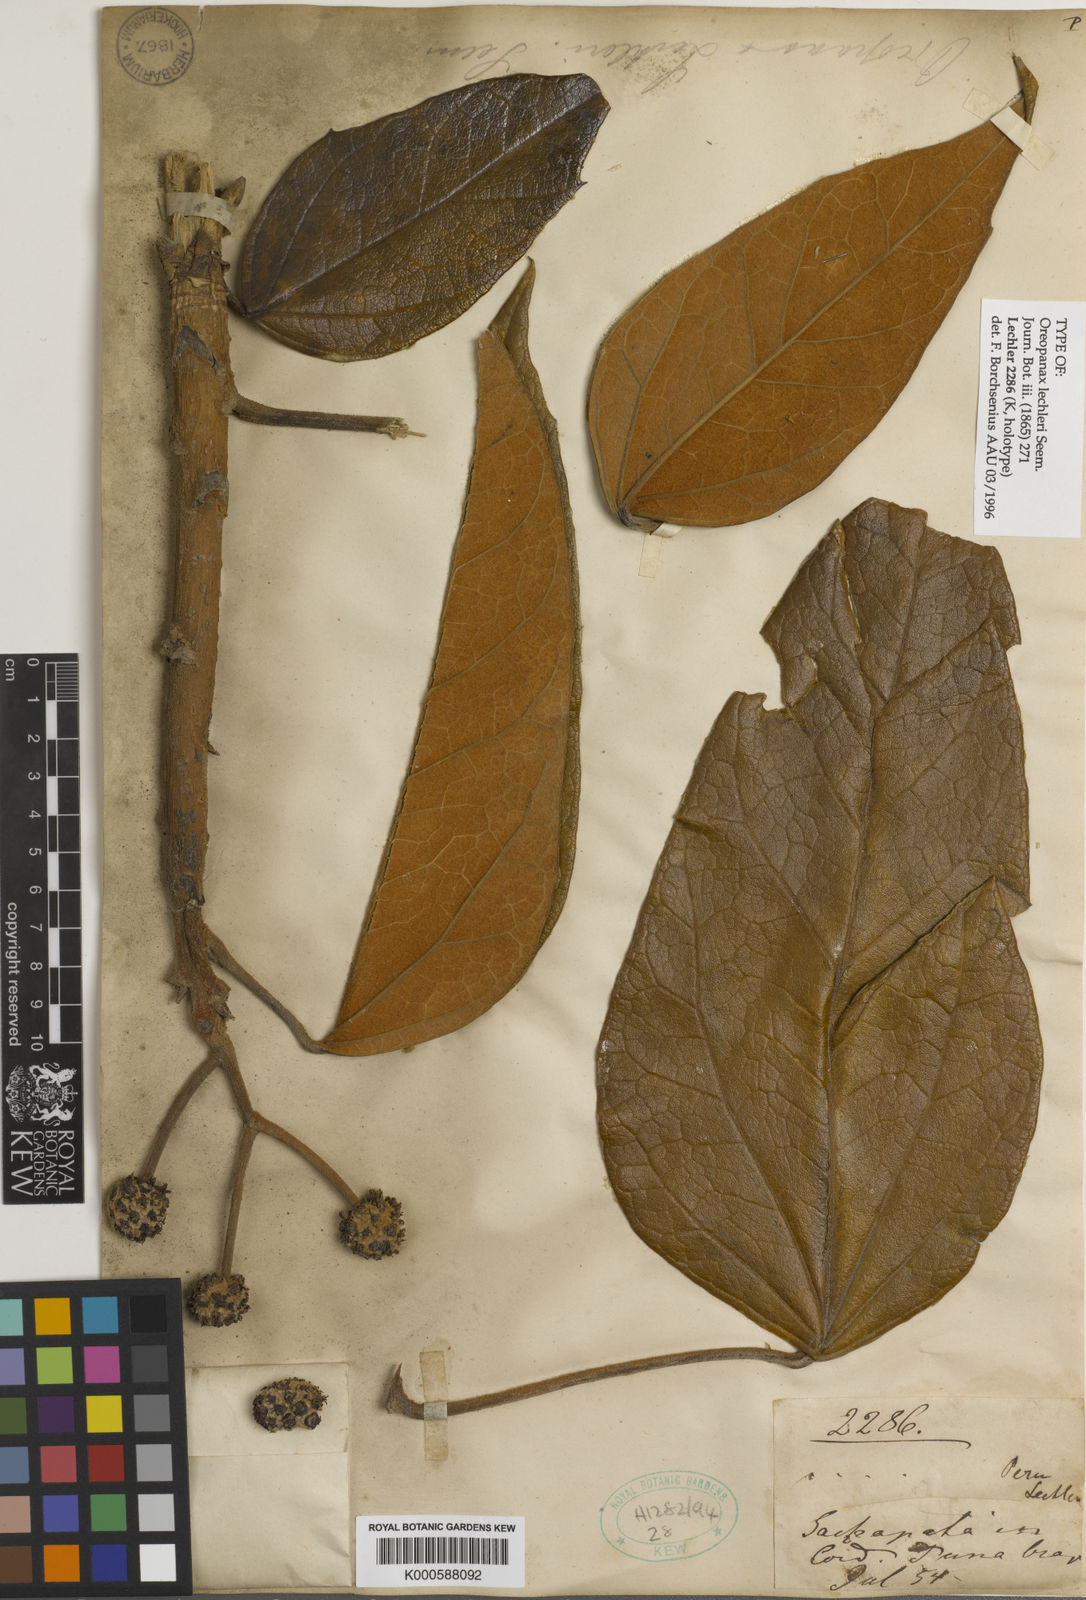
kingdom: Plantae
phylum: Tracheophyta
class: Magnoliopsida
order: Apiales
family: Araliaceae
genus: Oreopanax
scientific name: Oreopanax lechleri
